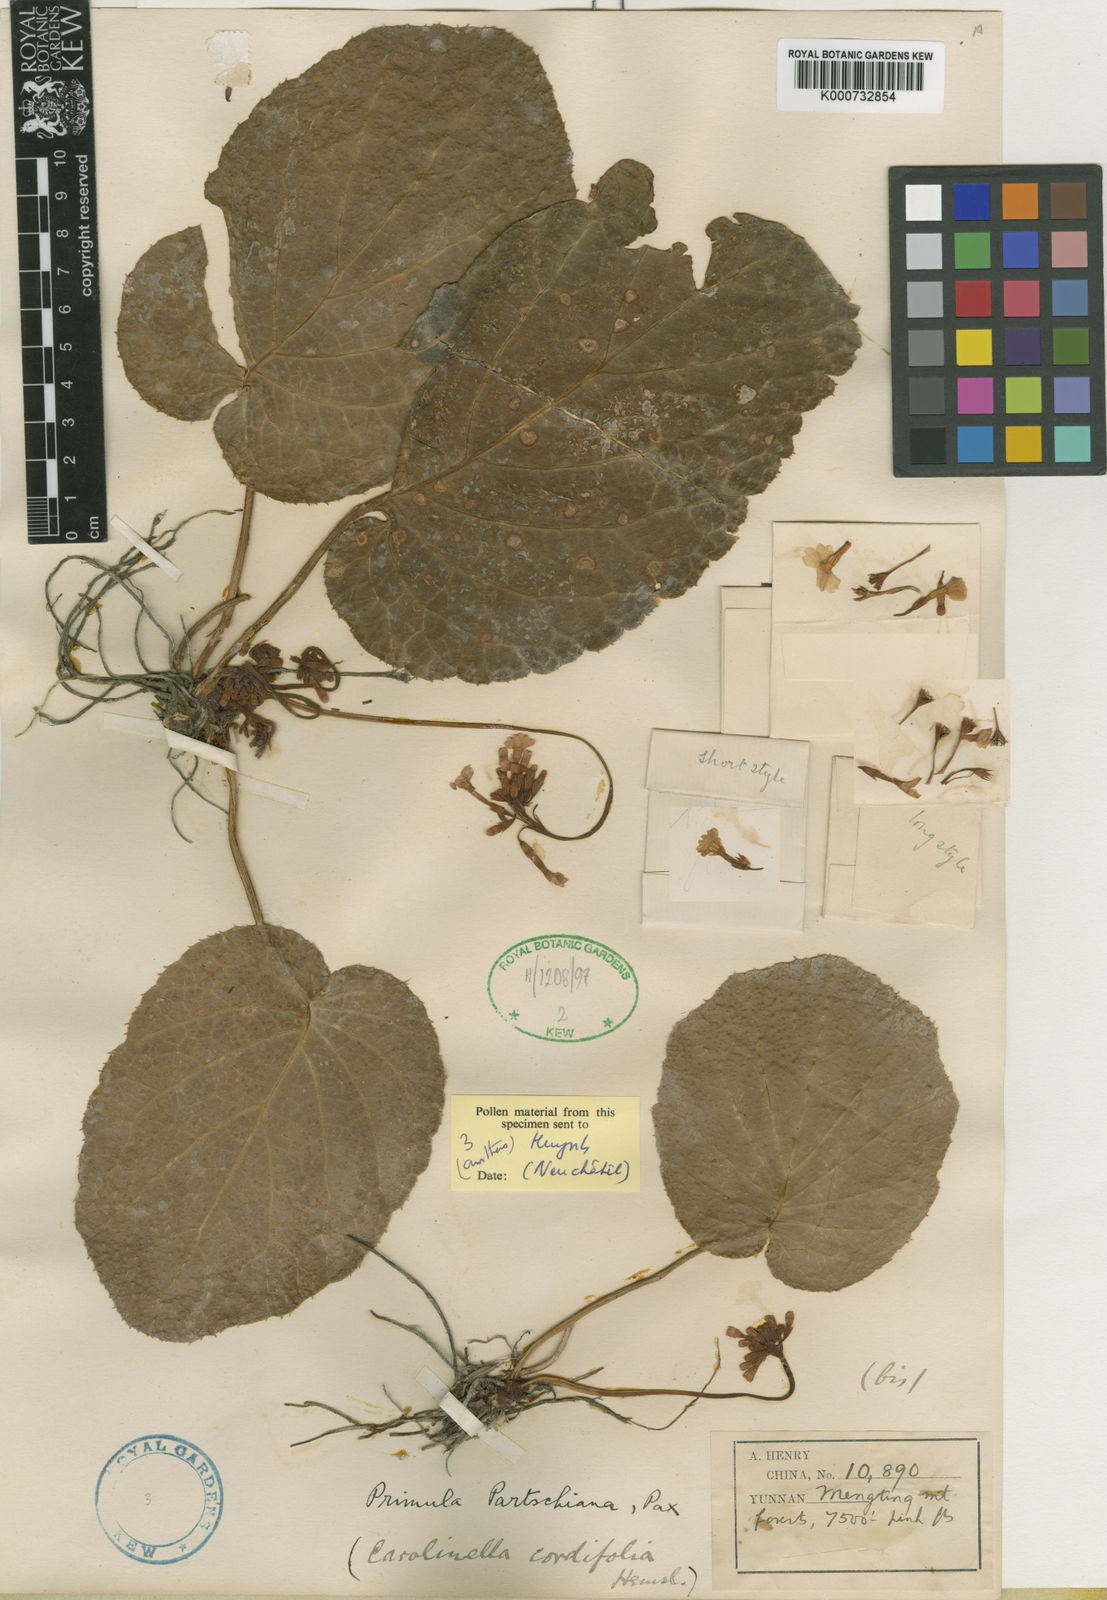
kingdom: Plantae
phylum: Tracheophyta
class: Magnoliopsida
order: Ericales
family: Primulaceae
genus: Primula
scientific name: Primula partschiana
